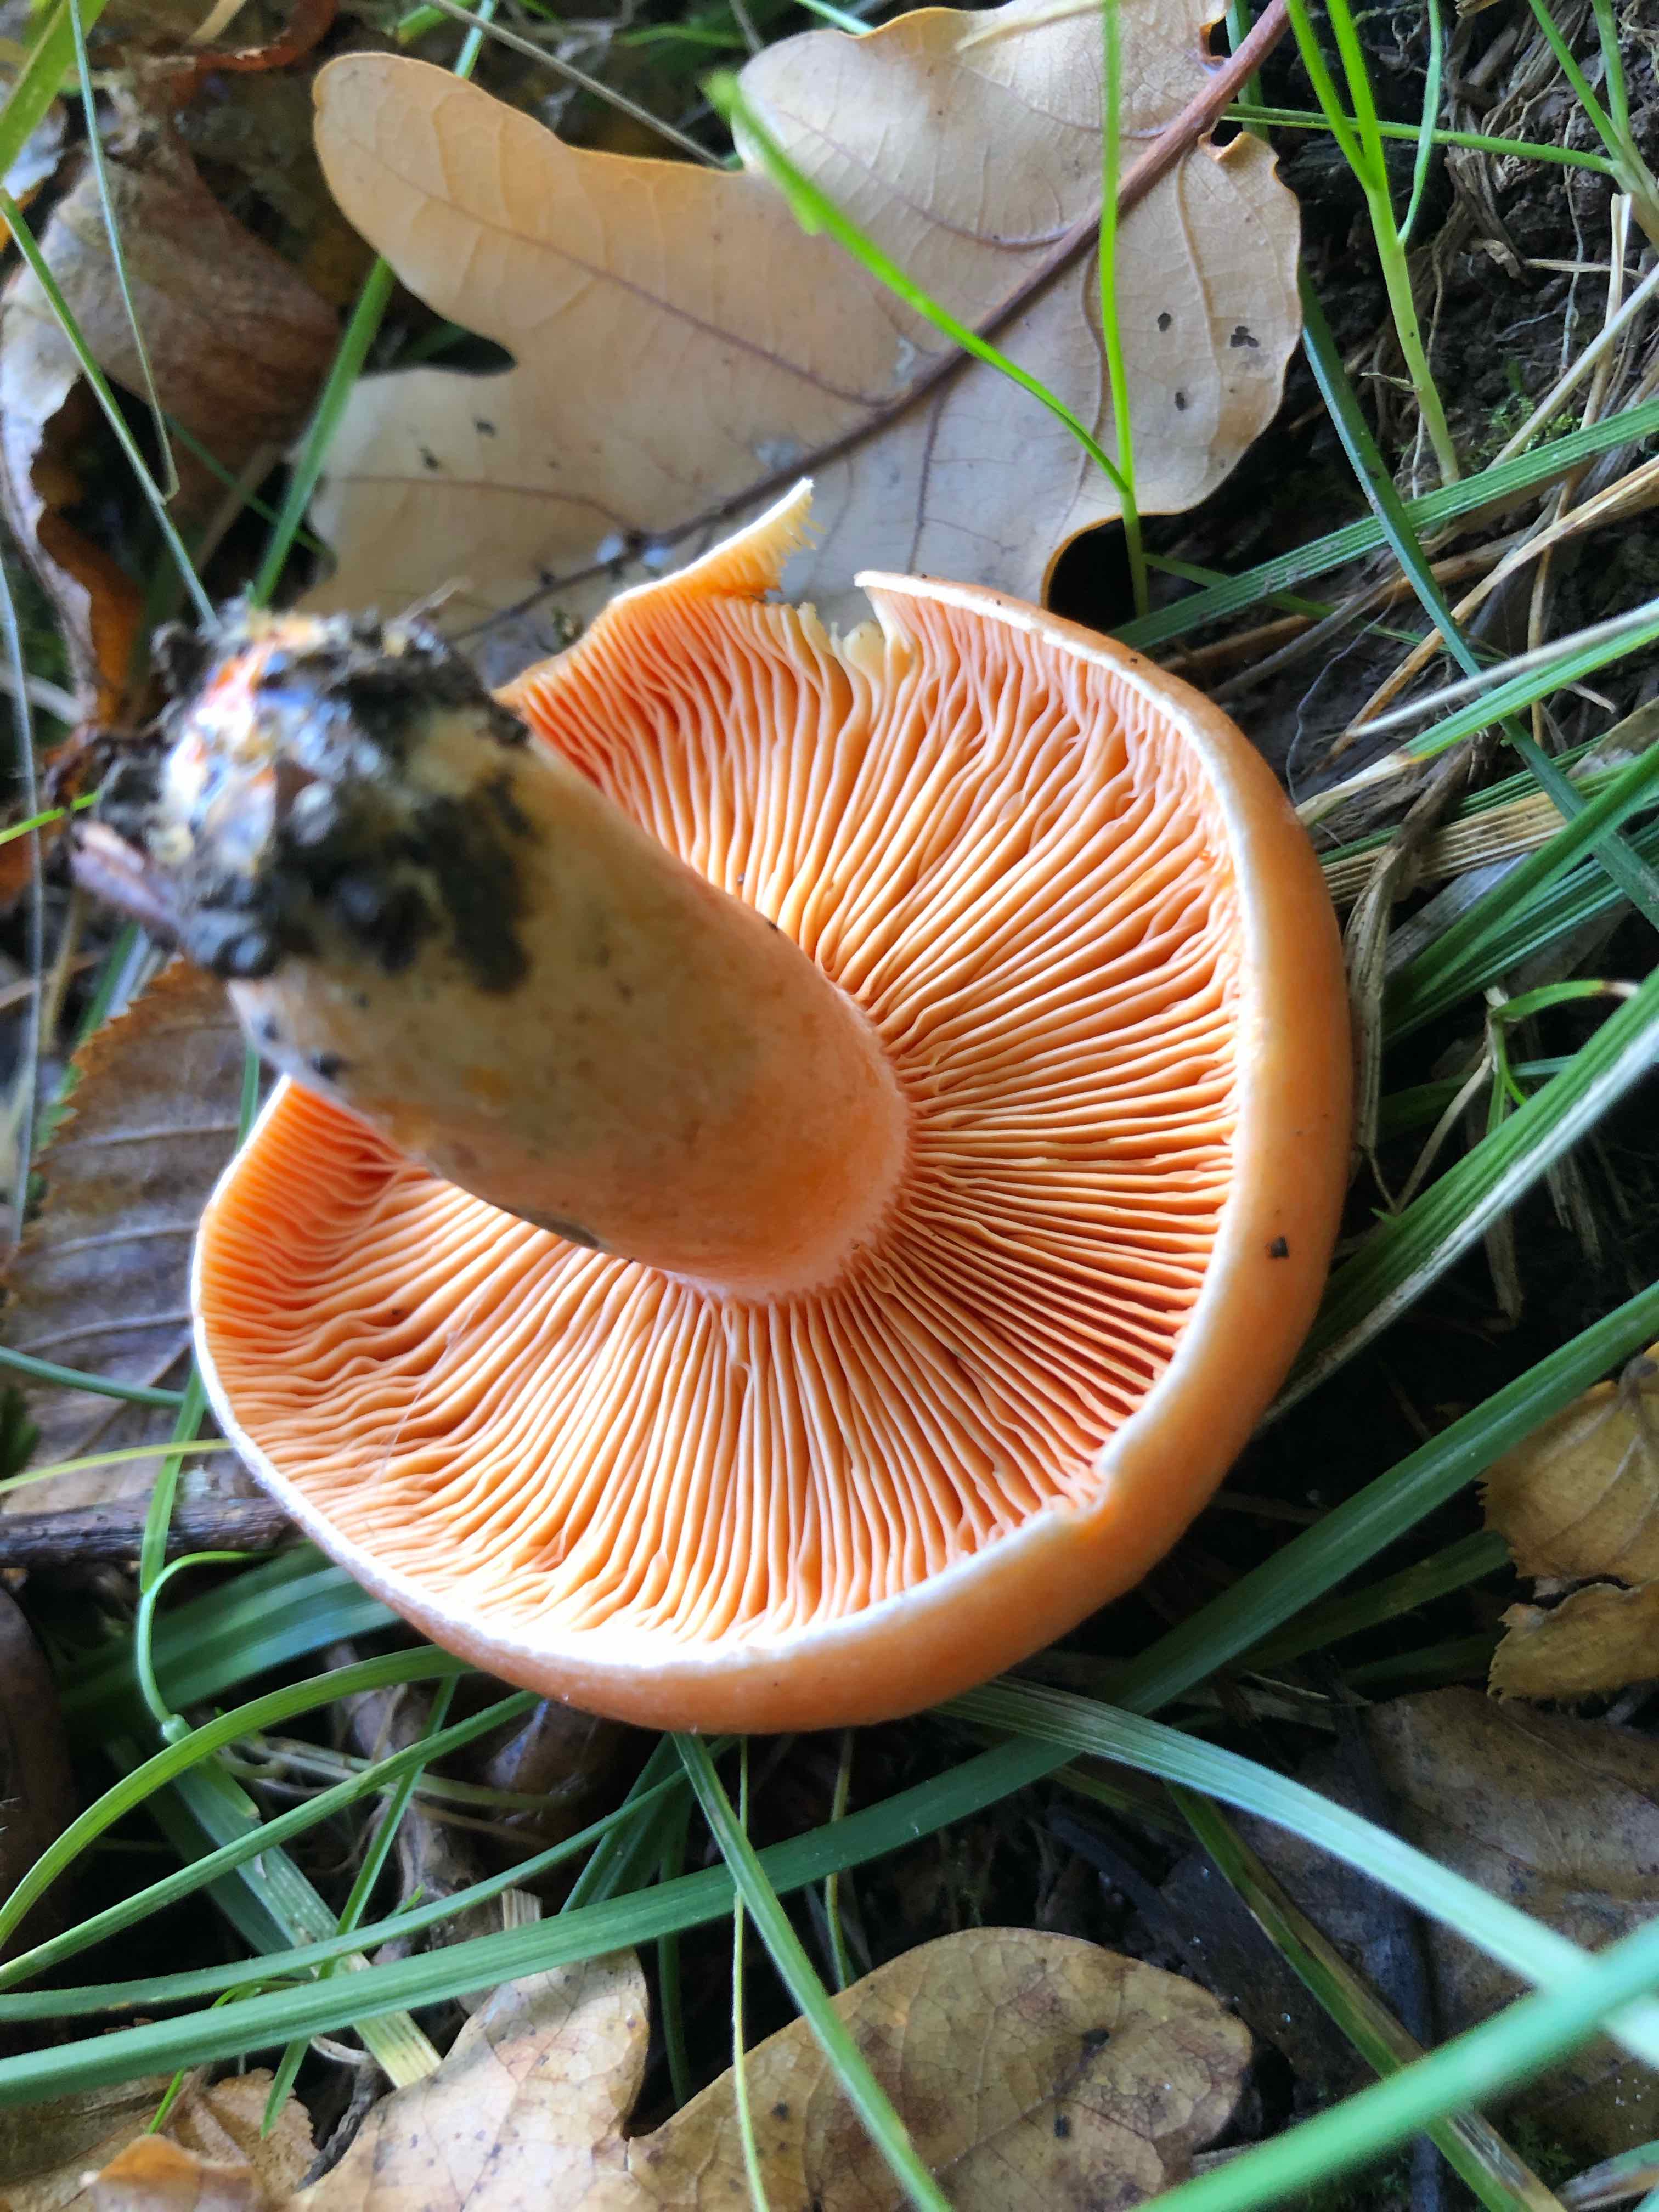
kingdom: Fungi
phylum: Basidiomycota
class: Agaricomycetes
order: Russulales
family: Russulaceae
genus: Lactarius
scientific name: Lactarius deterrimus
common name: gran-mælkehat
